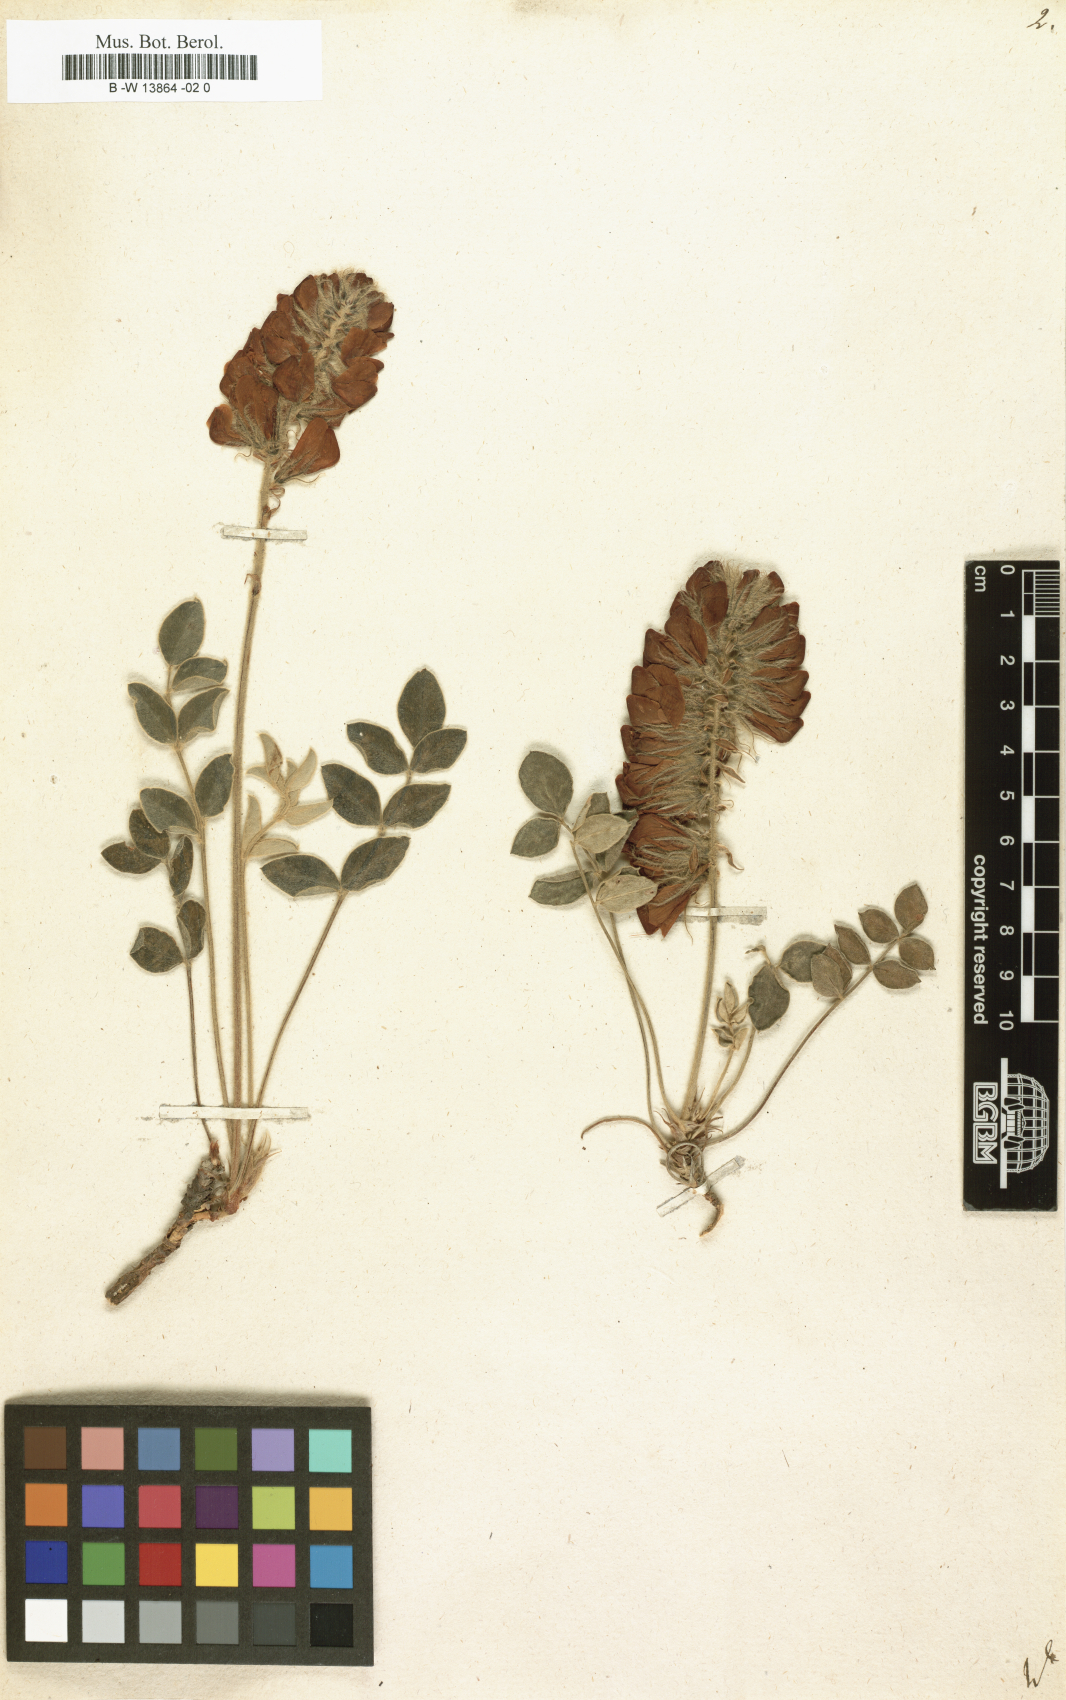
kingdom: Plantae
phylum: Tracheophyta
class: Magnoliopsida
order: Fabales
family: Fabaceae
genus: Hedysarum
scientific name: Hedysarum
